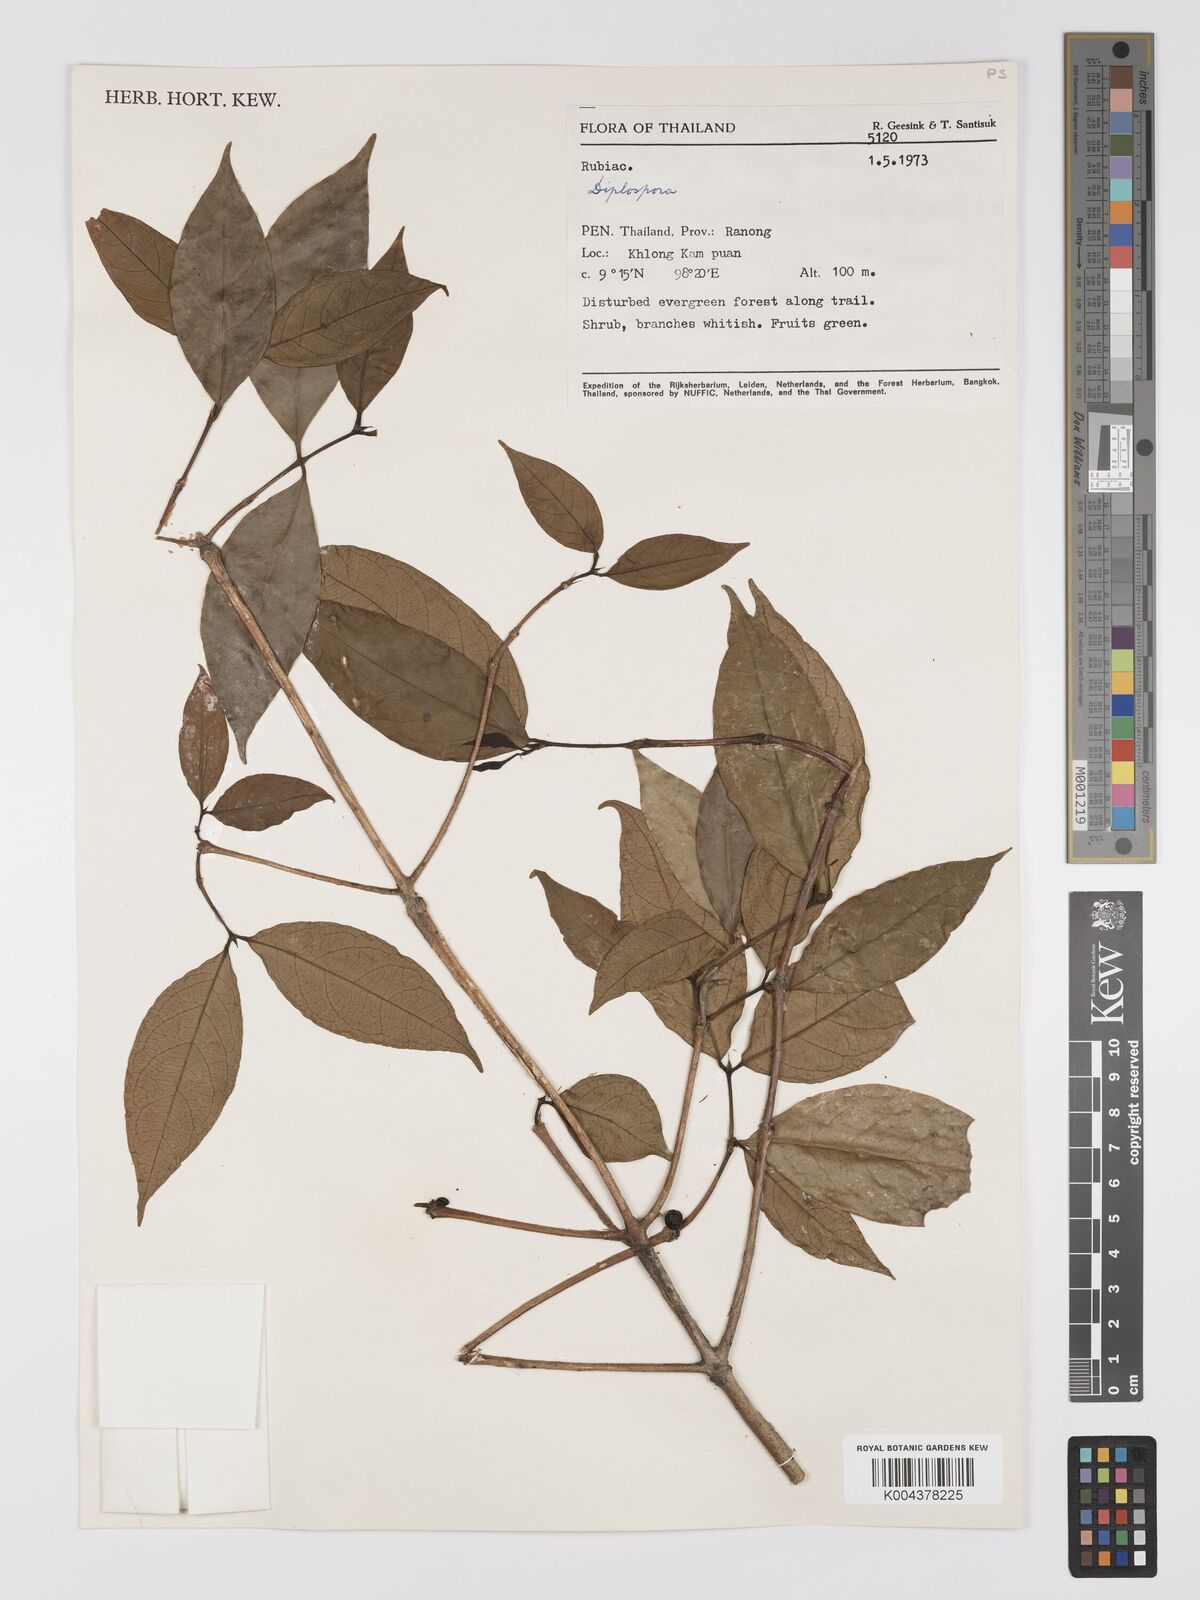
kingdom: Plantae
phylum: Tracheophyta
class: Magnoliopsida
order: Gentianales
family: Rubiaceae
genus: Diplospora
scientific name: Diplospora
